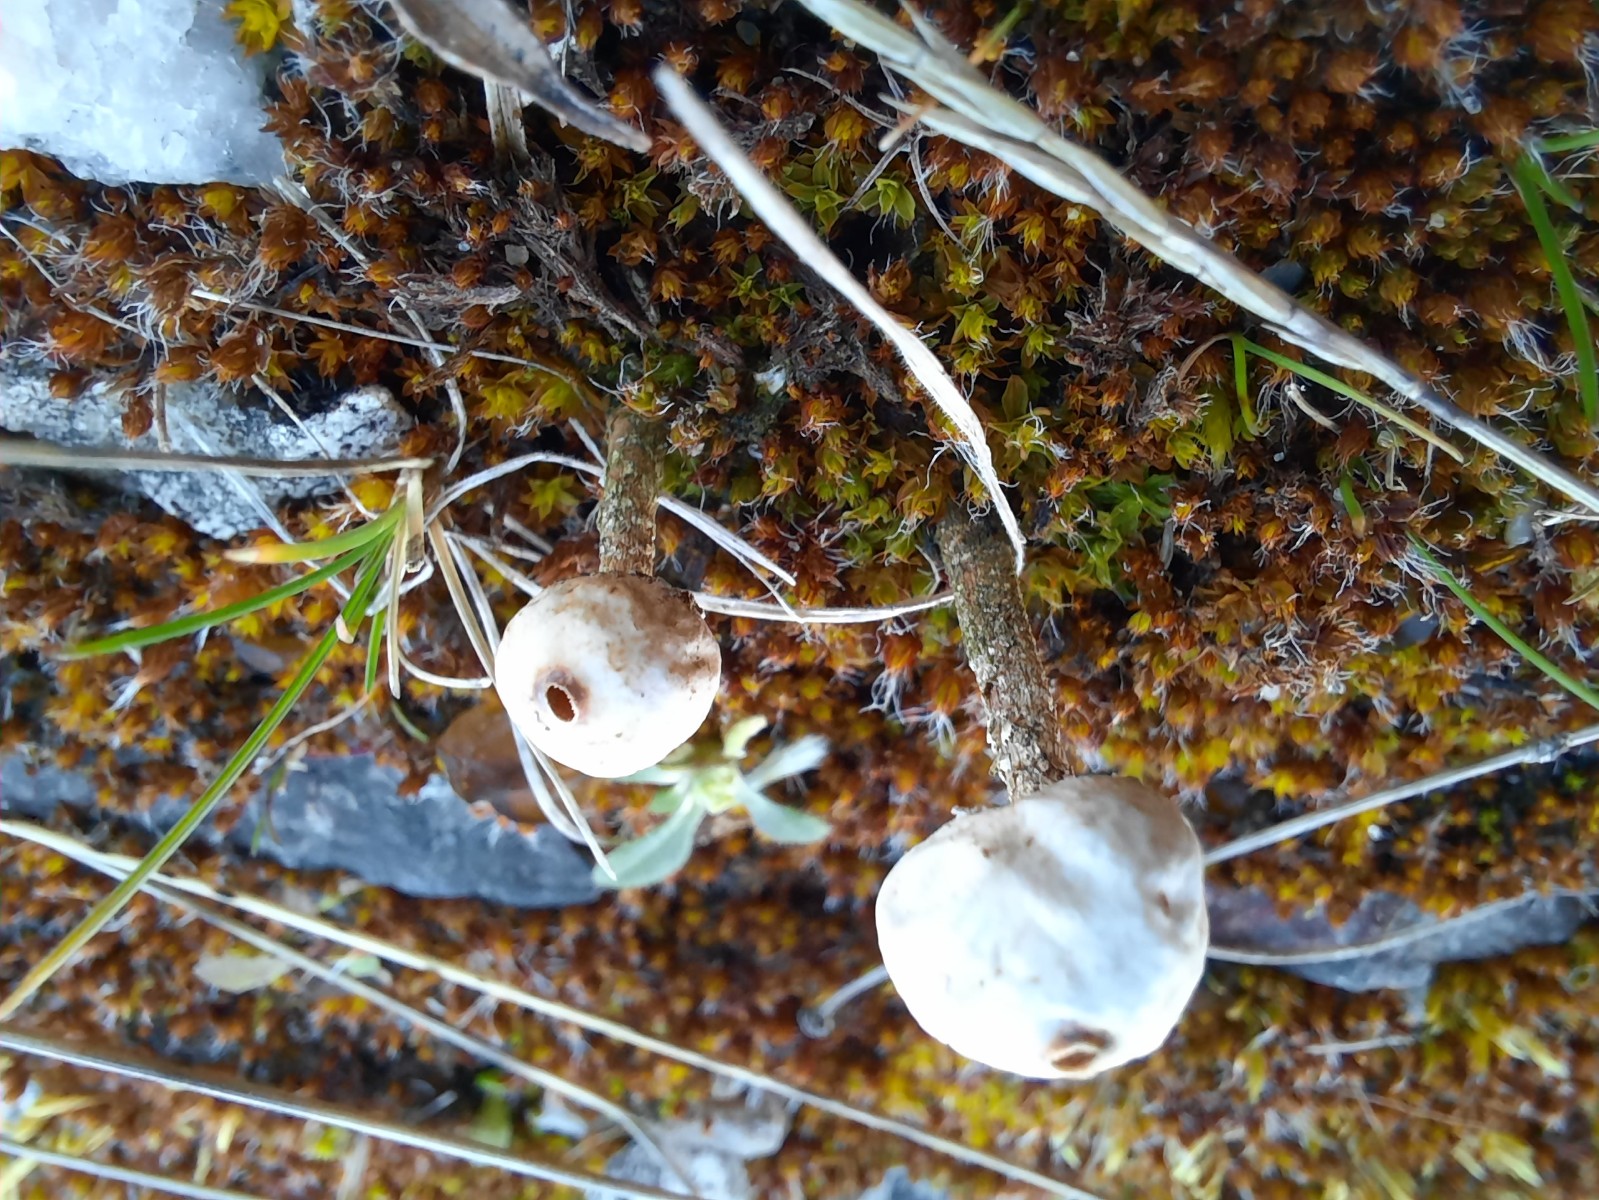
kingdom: Fungi
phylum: Basidiomycota
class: Agaricomycetes
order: Agaricales
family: Agaricaceae
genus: Tulostoma
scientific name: Tulostoma brumale
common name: vinter-stilkbovist
